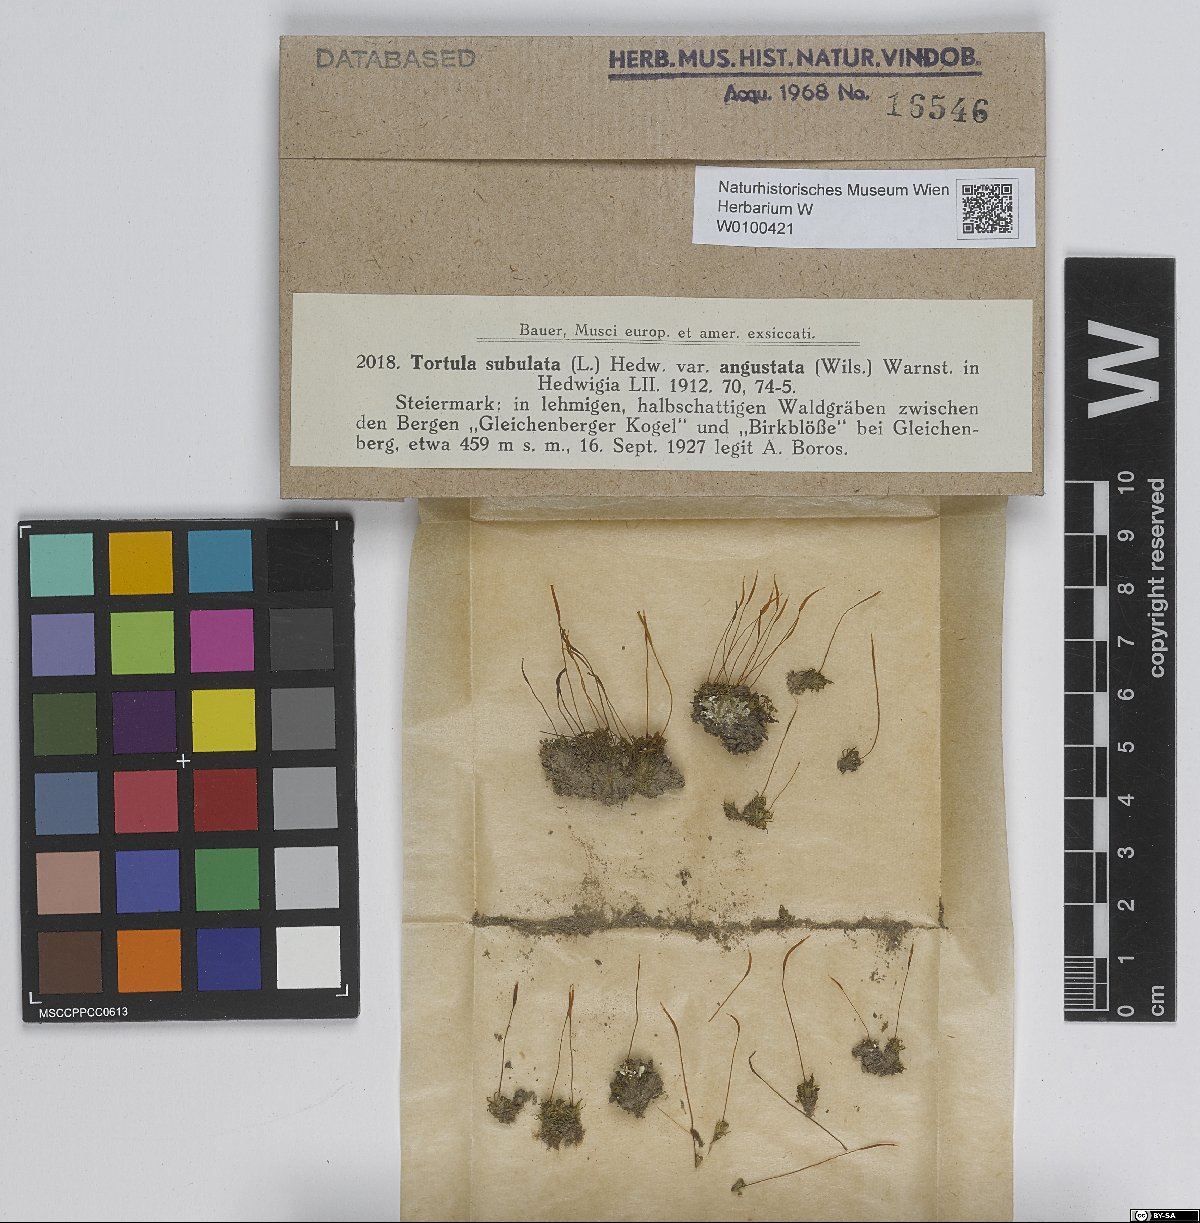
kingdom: Plantae
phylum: Bryophyta
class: Bryopsida
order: Pottiales
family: Pottiaceae
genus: Tortula
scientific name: Tortula subulata
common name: Upright screw-moss
